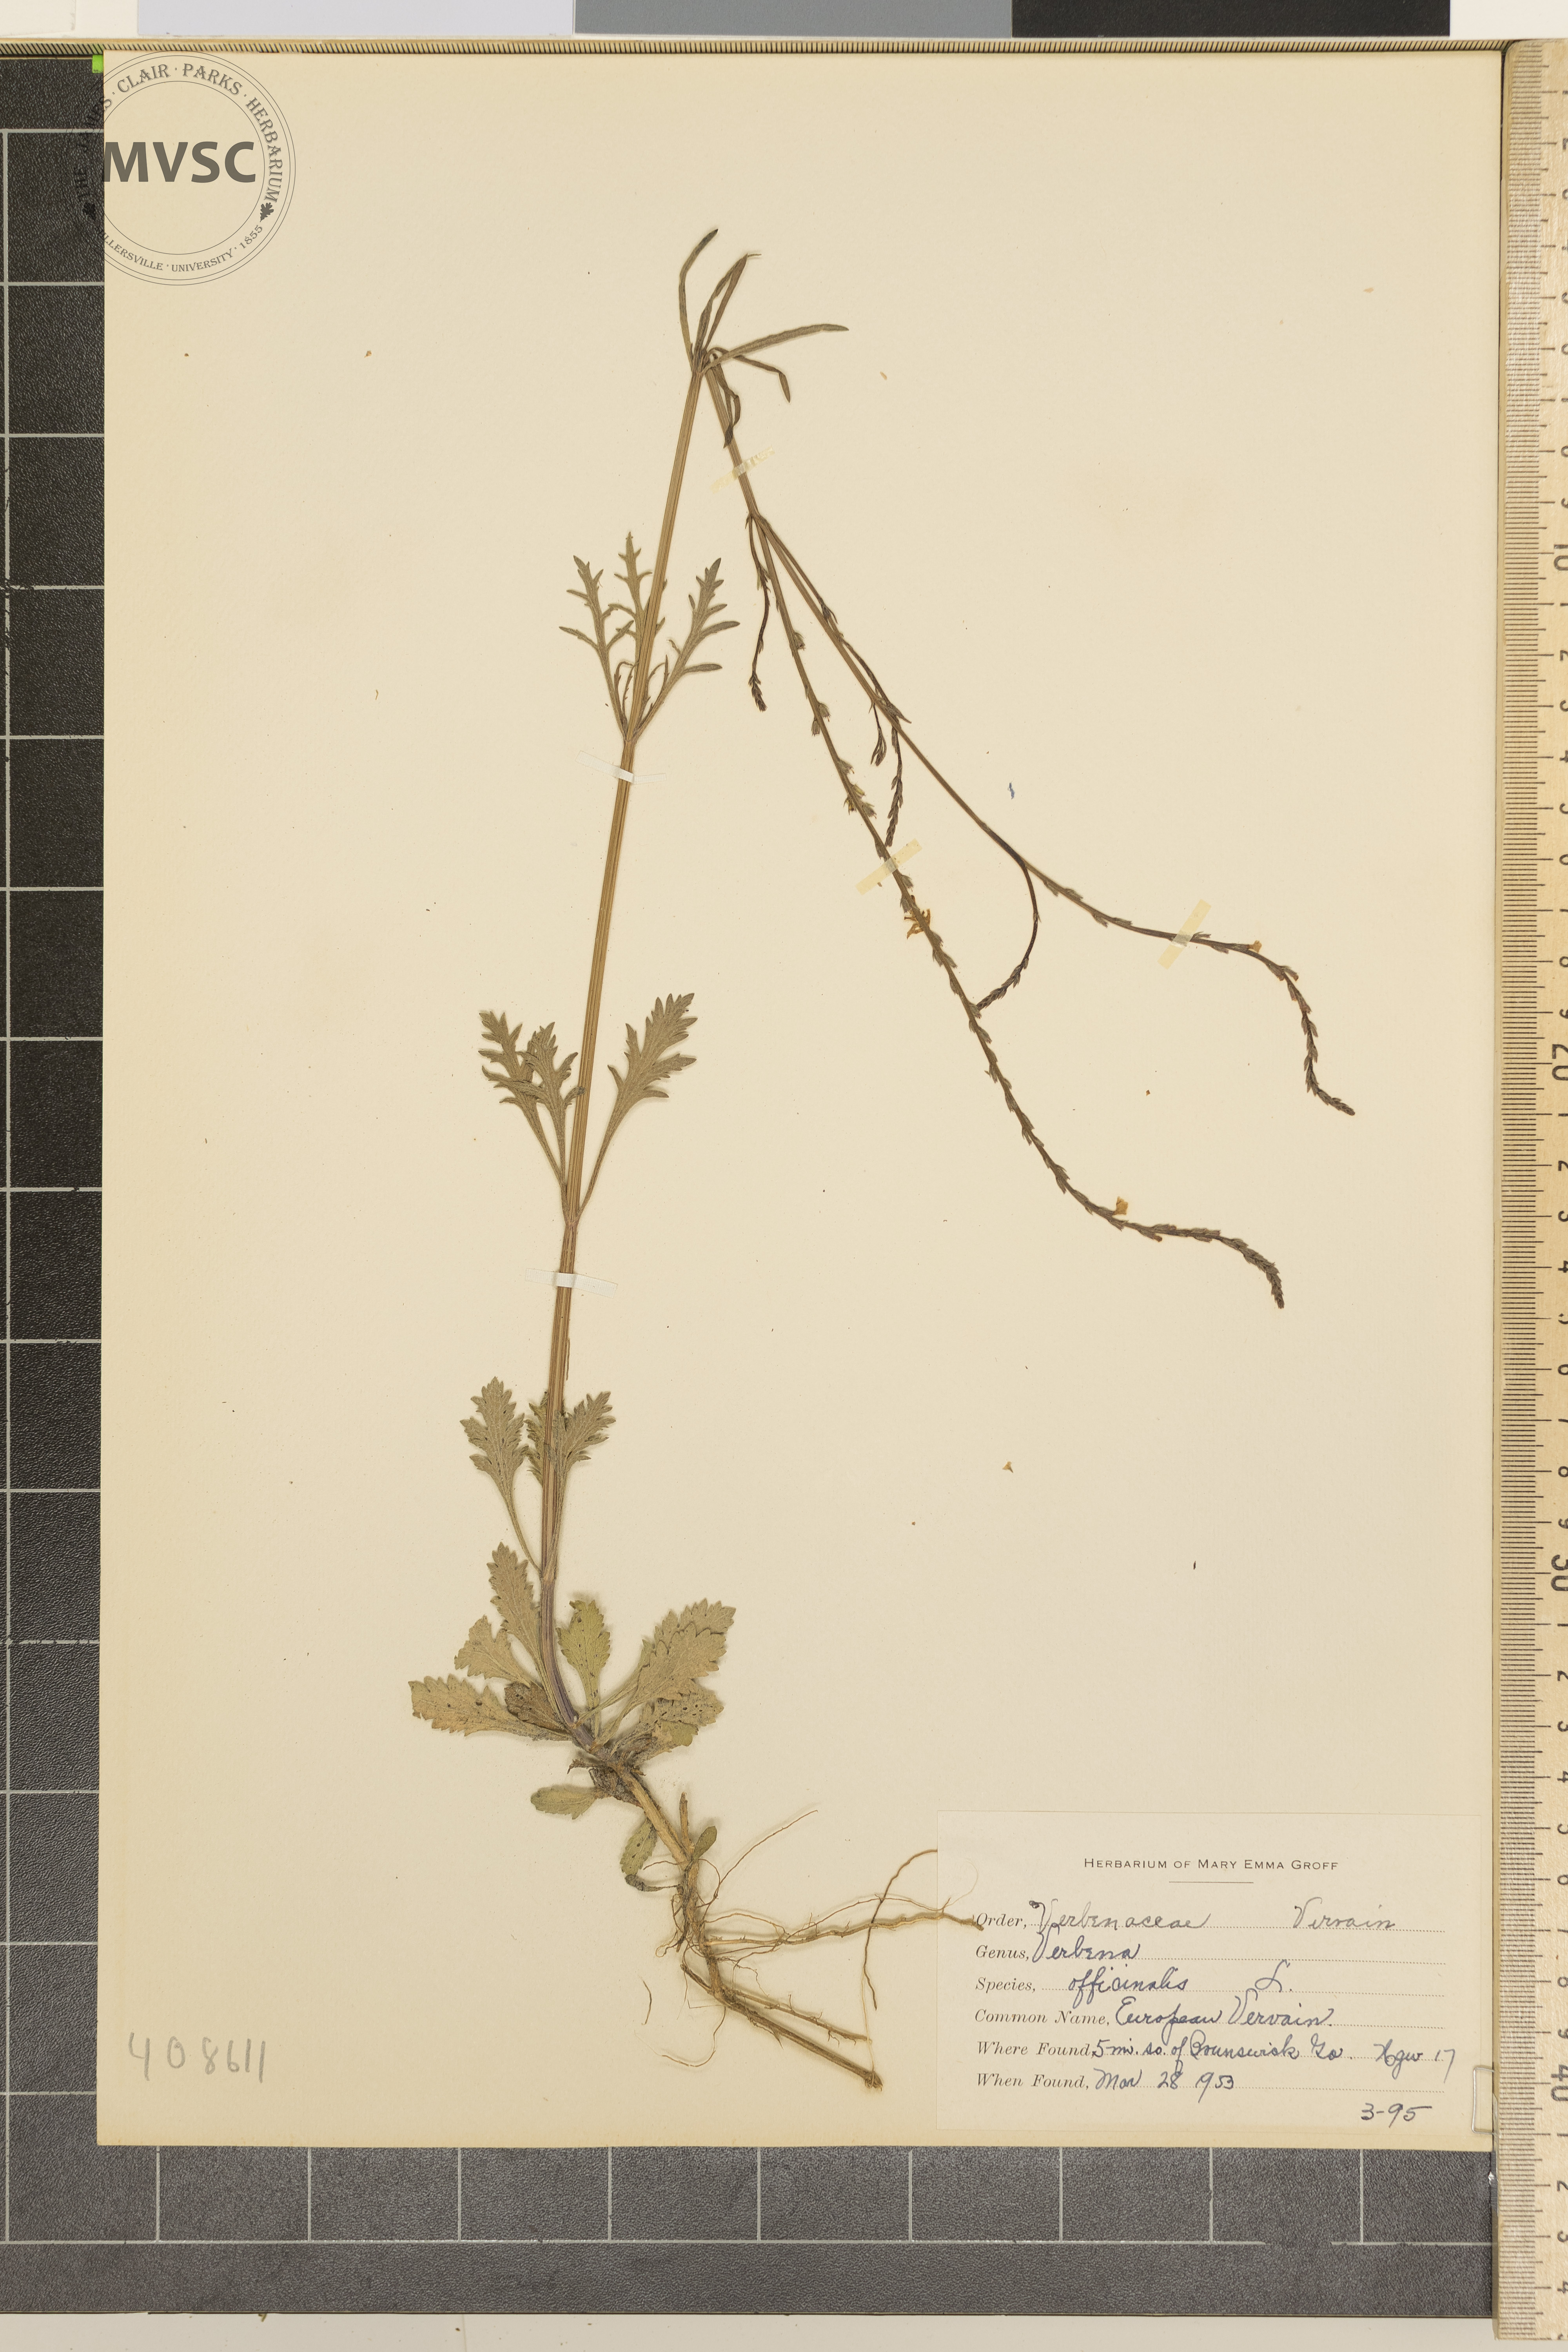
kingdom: Plantae
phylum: Tracheophyta
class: Magnoliopsida
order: Lamiales
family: Verbenaceae
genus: Verbena
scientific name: Verbena officinalis
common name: European Vervain
